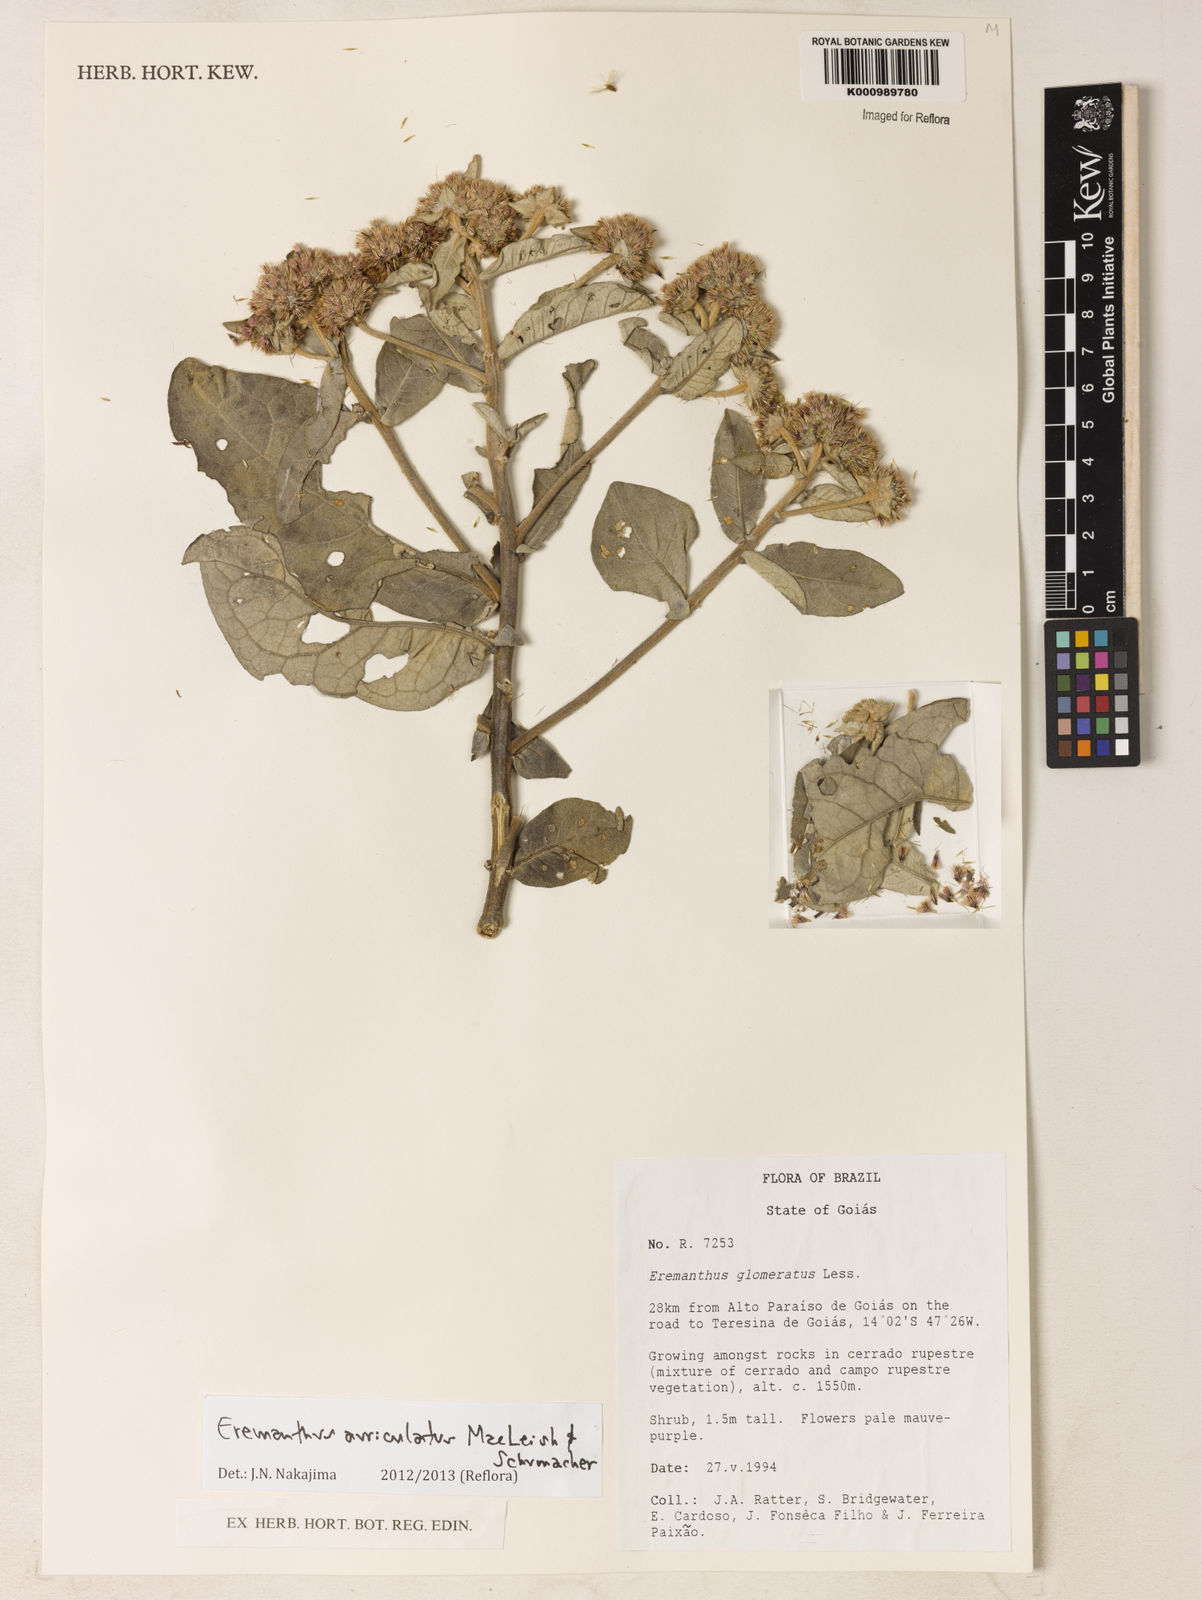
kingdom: Plantae
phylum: Tracheophyta
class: Magnoliopsida
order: Asterales
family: Asteraceae
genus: Eremanthus
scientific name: Eremanthus auriculatus
